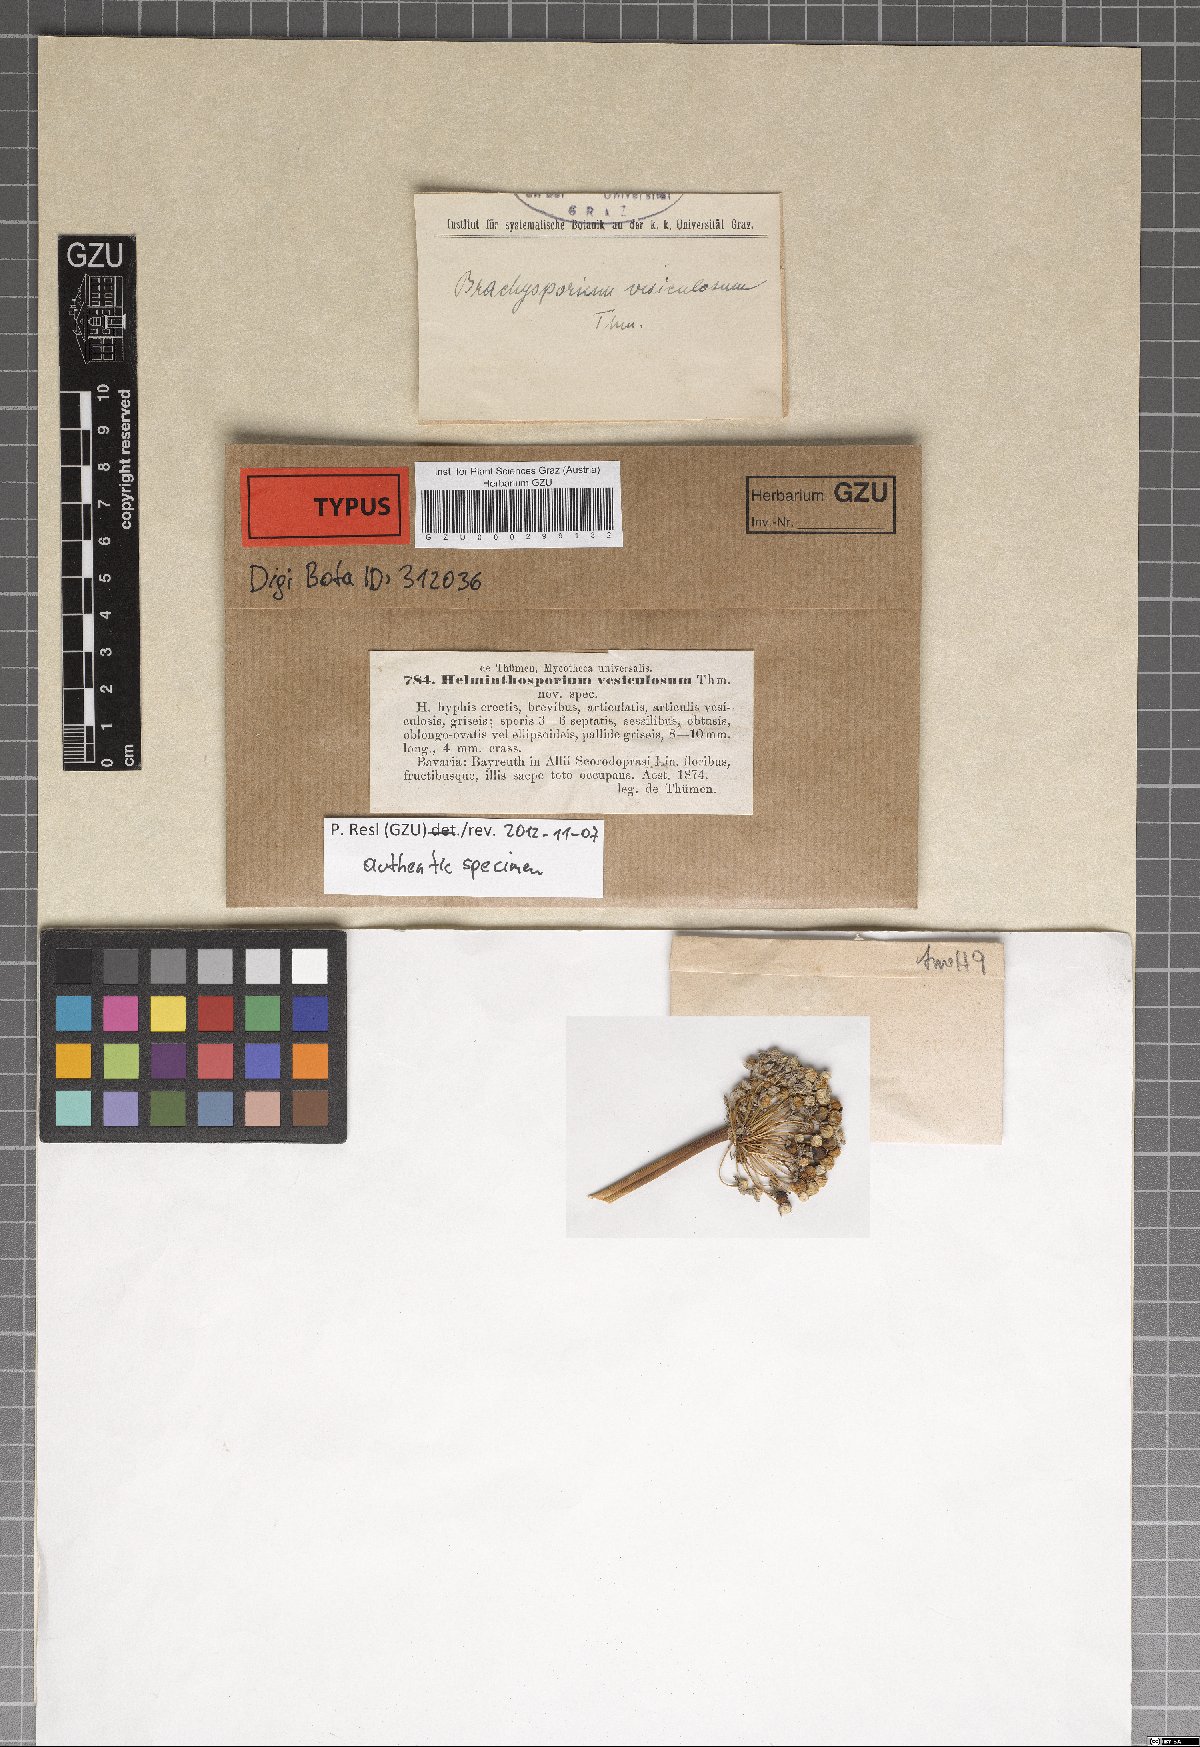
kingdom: Fungi
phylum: Ascomycota
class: Dothideomycetes
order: Pleosporales
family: Massarinaceae
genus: Helminthosporium
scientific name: Helminthosporium
